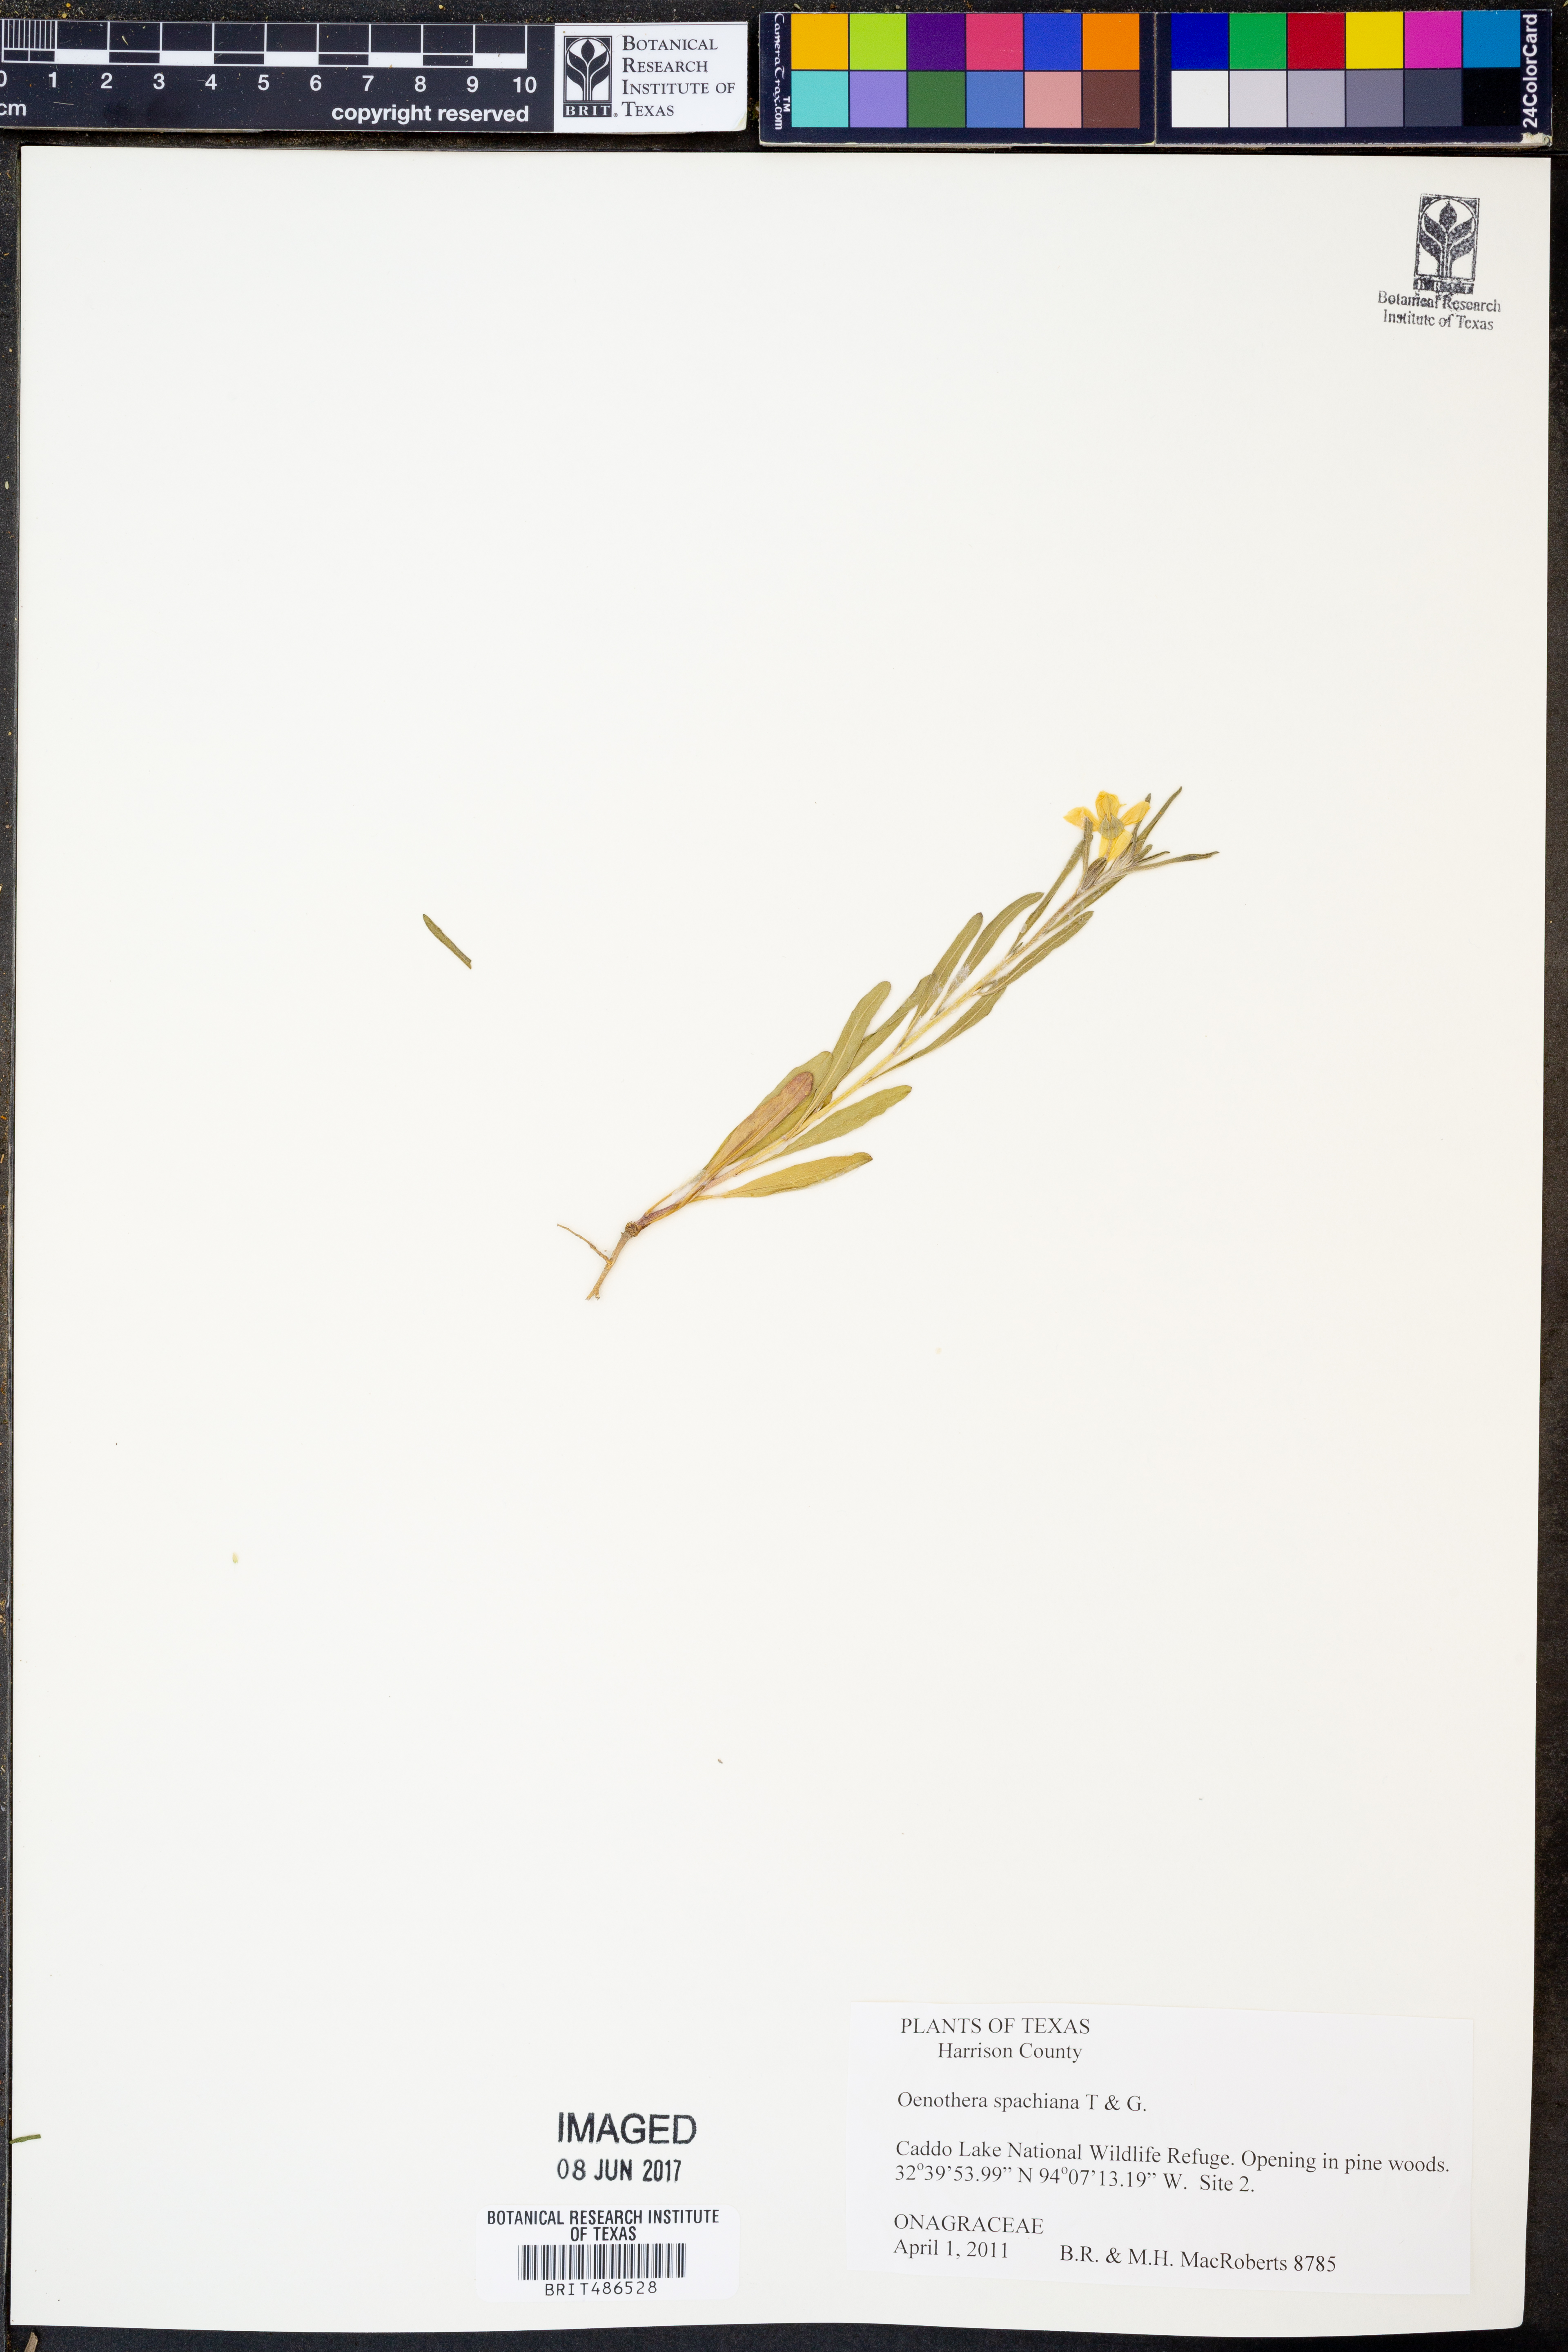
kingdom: Plantae
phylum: Tracheophyta
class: Magnoliopsida
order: Myrtales
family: Onagraceae
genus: Oenothera
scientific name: Oenothera spachiana
